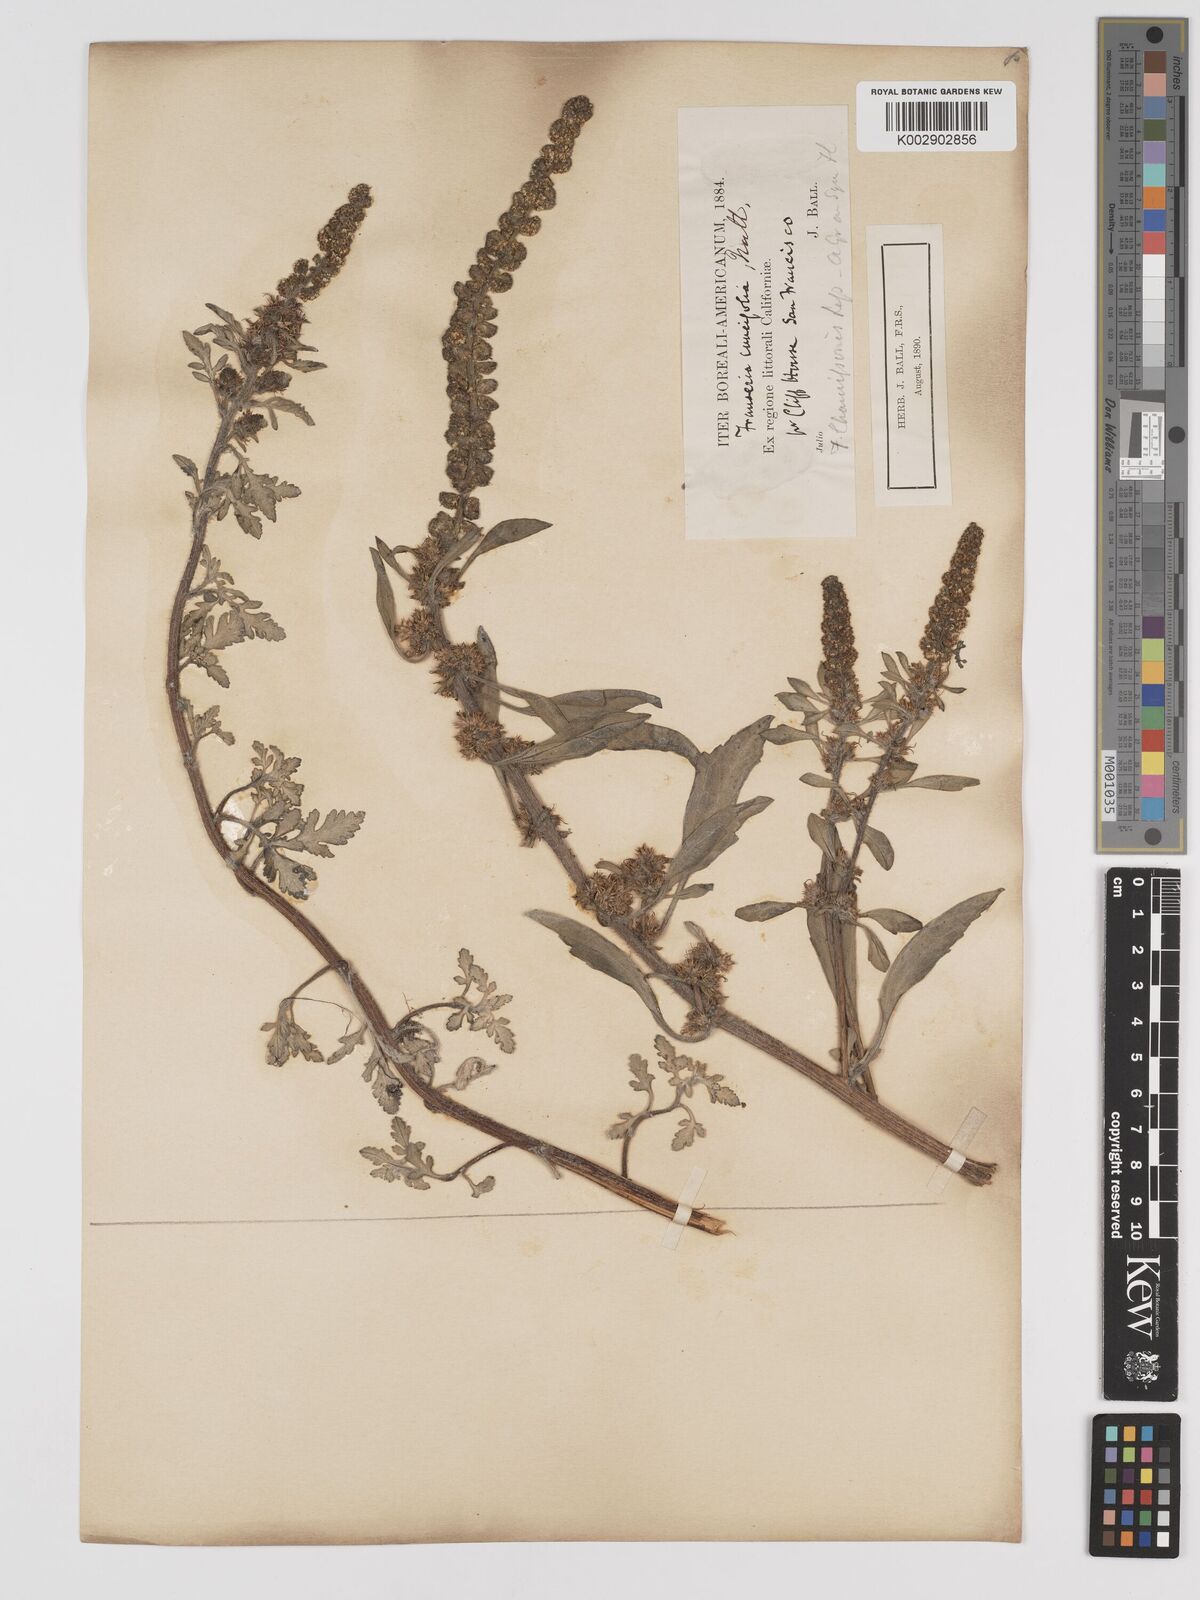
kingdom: Plantae
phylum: Tracheophyta
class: Magnoliopsida
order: Asterales
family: Asteraceae
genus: Ambrosia
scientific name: Ambrosia chamissonis
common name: Beachbur
